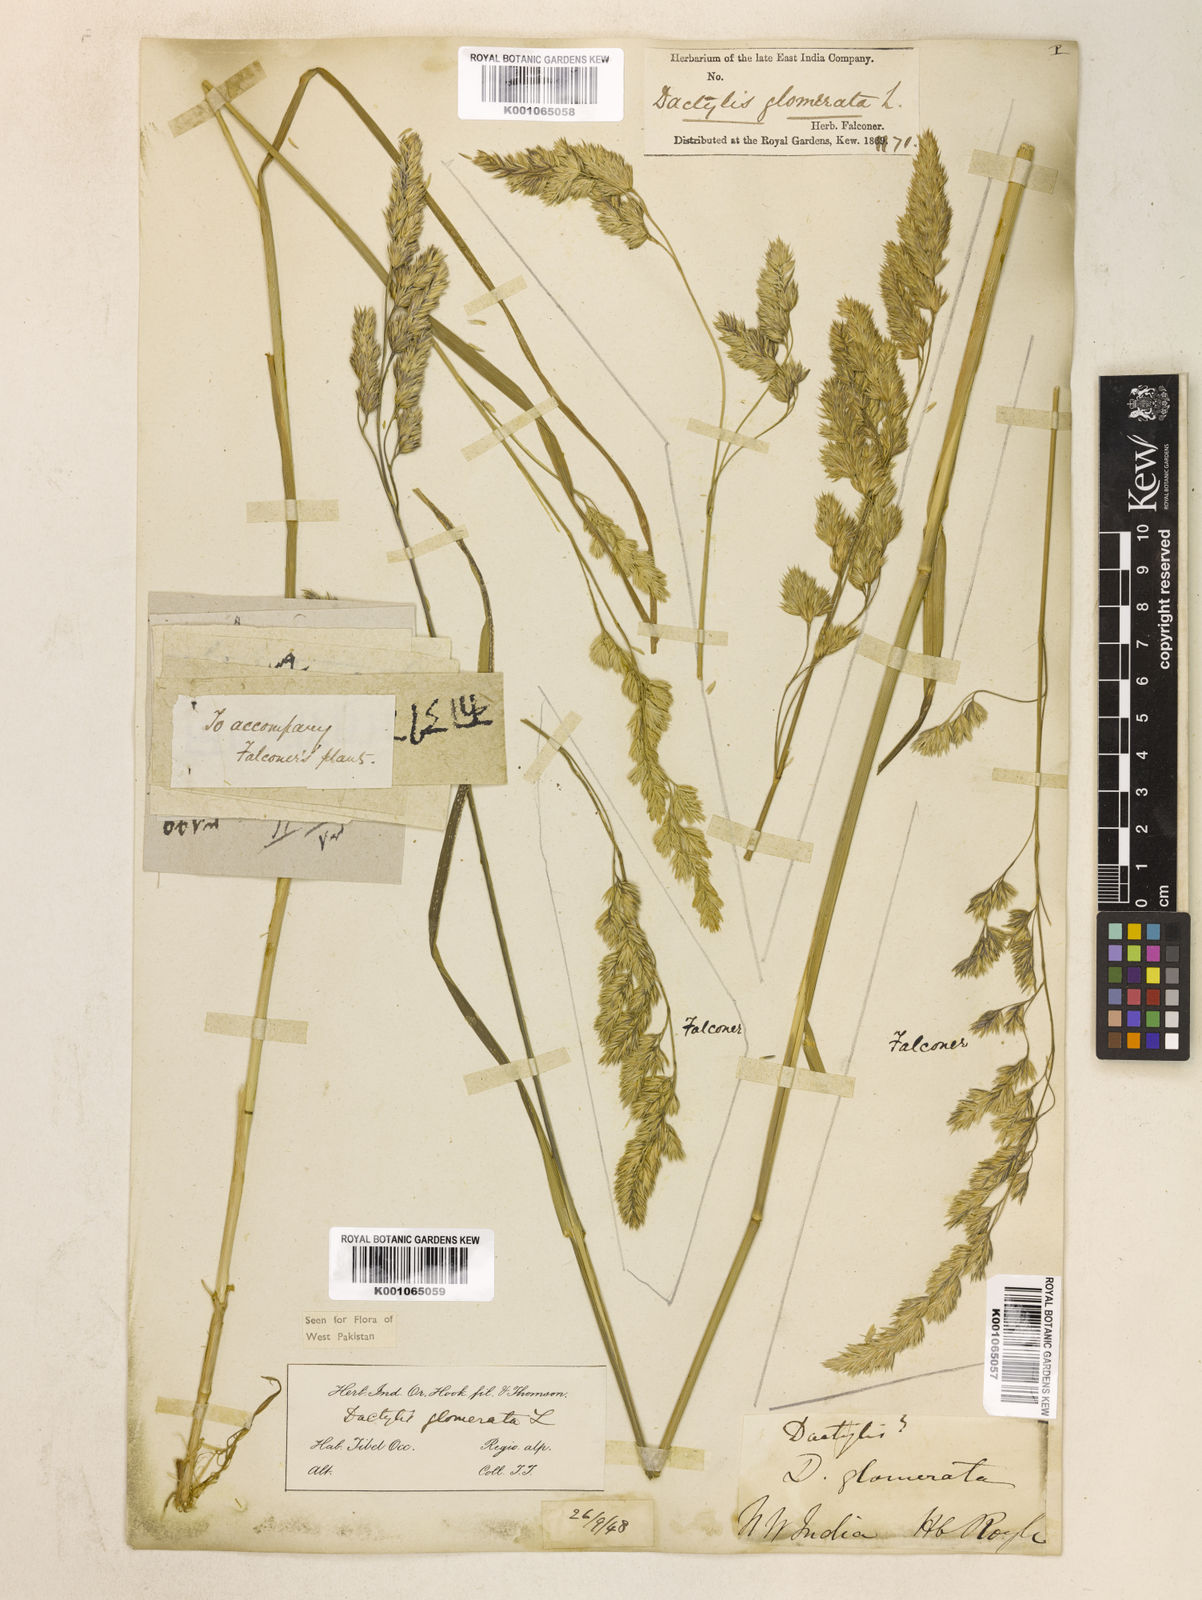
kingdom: Plantae
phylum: Tracheophyta
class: Liliopsida
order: Poales
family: Poaceae
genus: Dactylis
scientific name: Dactylis glomerata
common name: Orchardgrass
